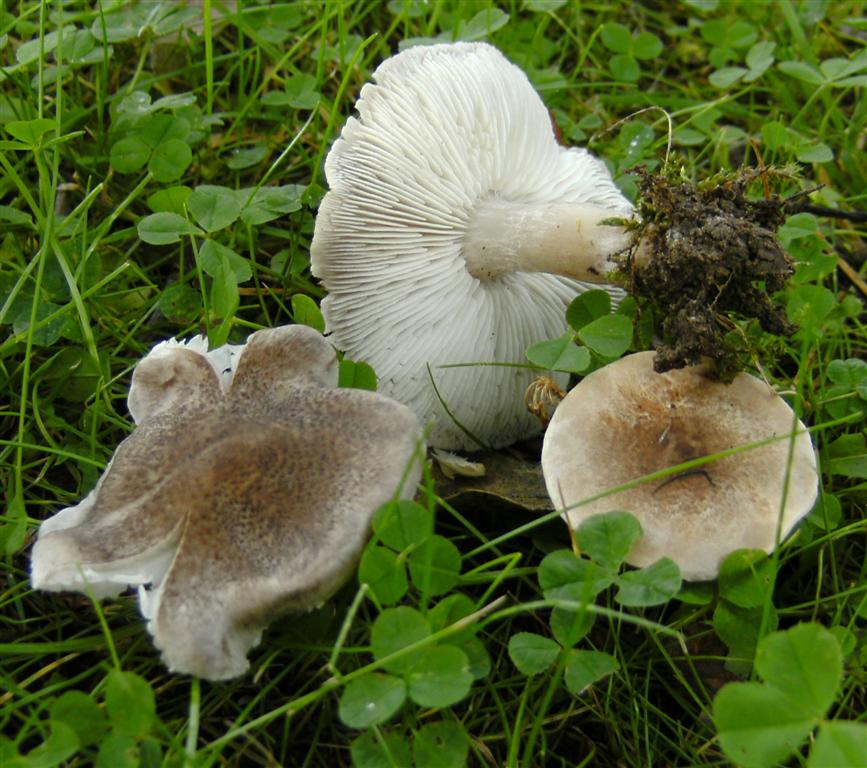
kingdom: Fungi
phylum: Basidiomycota
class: Agaricomycetes
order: Agaricales
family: Tricholomataceae
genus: Tricholoma
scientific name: Tricholoma argyraceum
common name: slør-ridderhat
